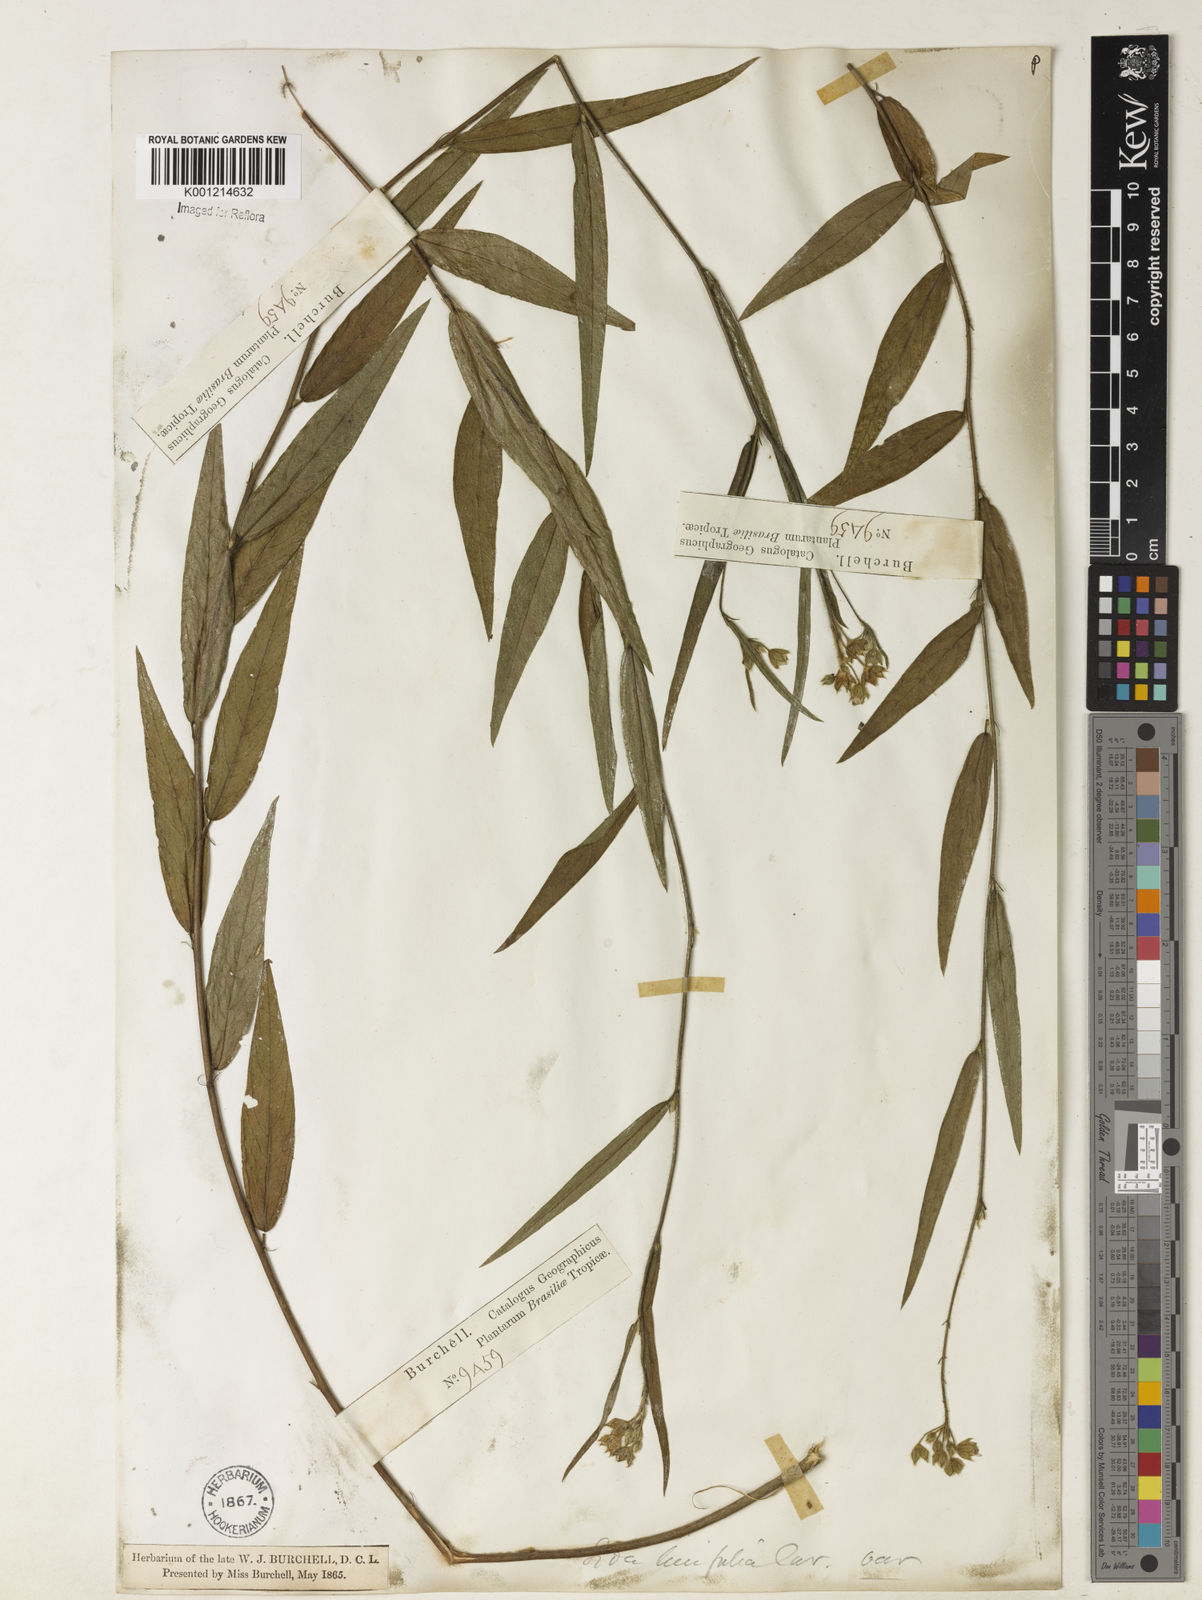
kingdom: Plantae
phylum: Tracheophyta
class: Magnoliopsida
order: Malvales
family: Malvaceae
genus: Sida
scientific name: Sida linifolia
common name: Flaxleaf fanpetals
